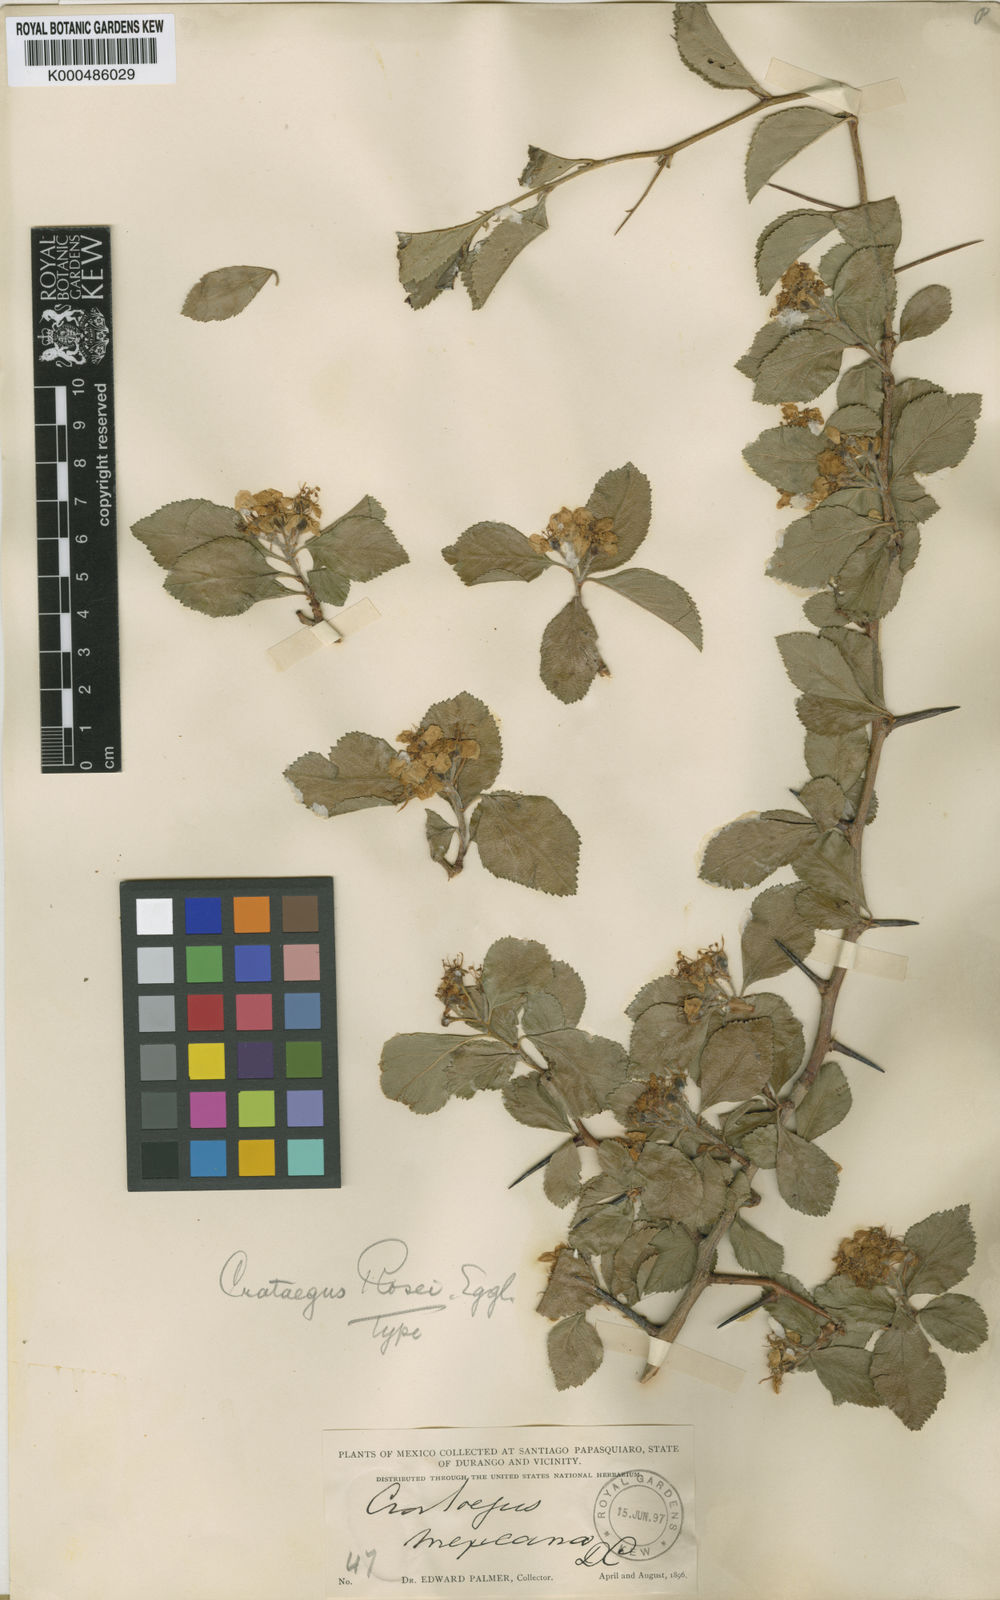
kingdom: Plantae
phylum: Tracheophyta
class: Magnoliopsida
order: Rosales
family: Rosaceae
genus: Crataegus
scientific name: Crataegus rosei
